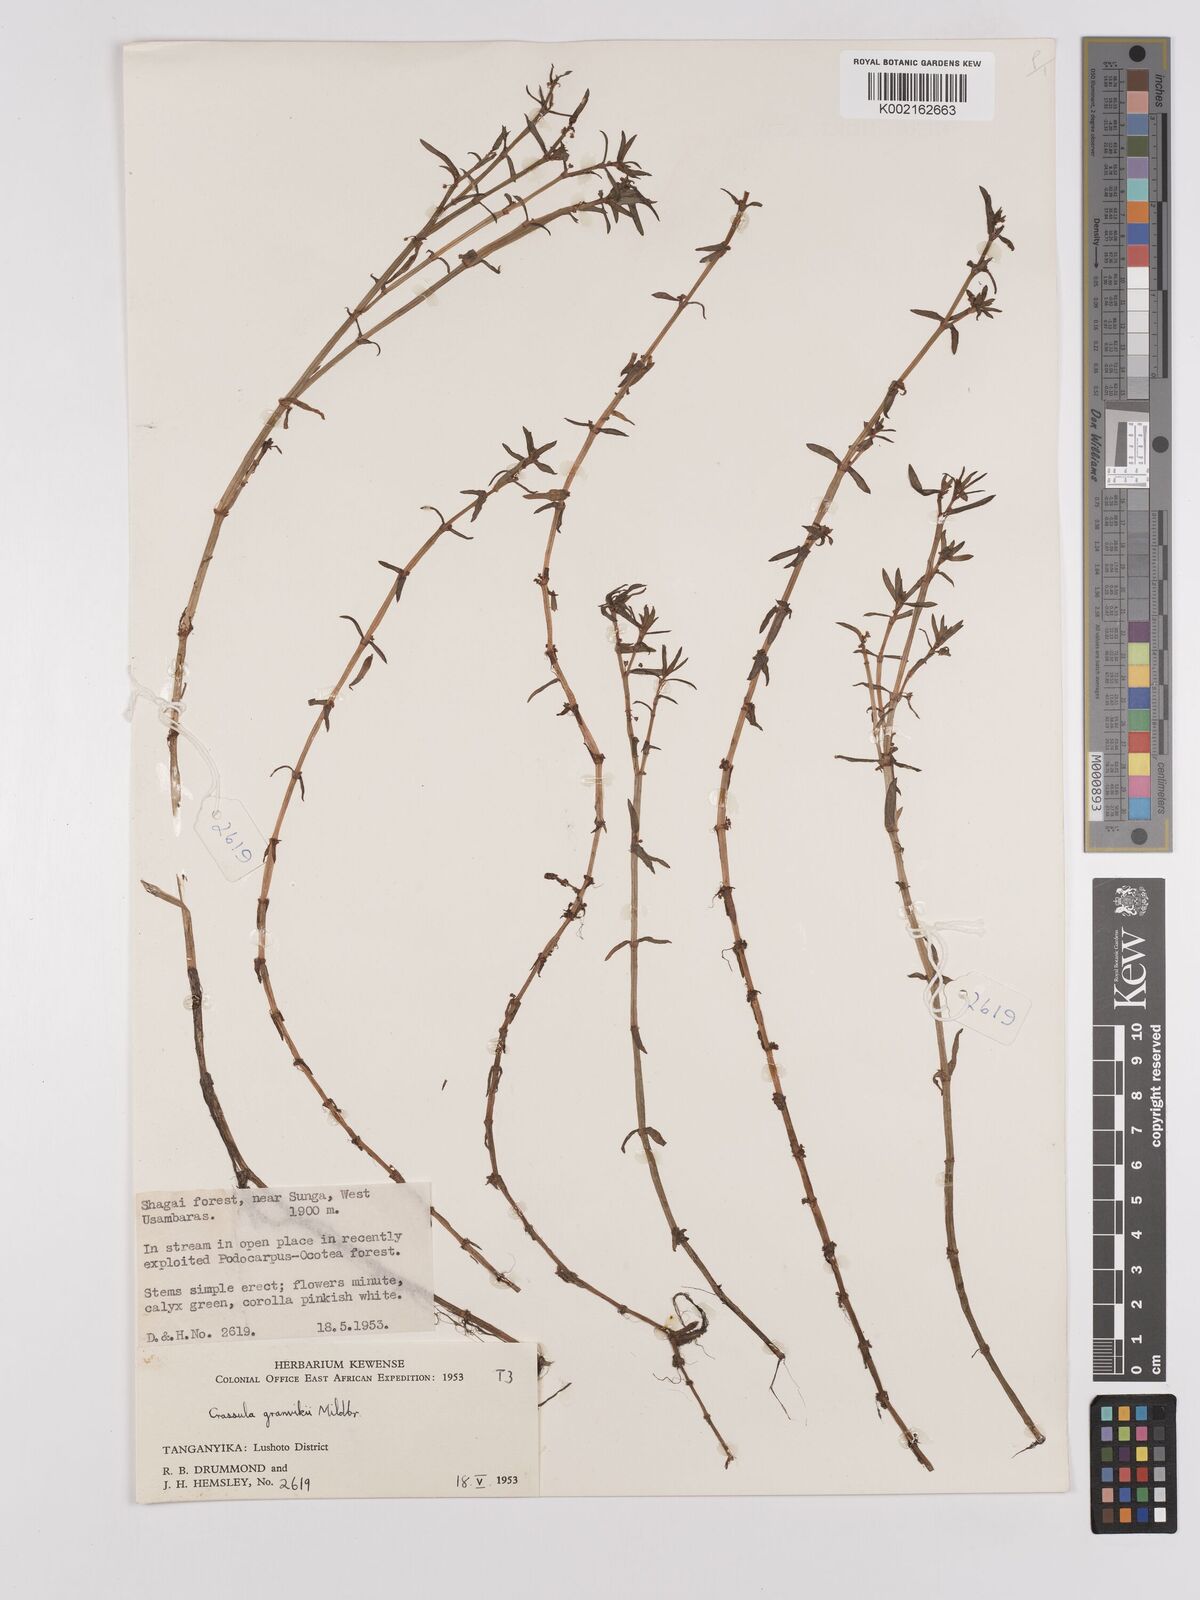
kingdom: Plantae
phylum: Tracheophyta
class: Magnoliopsida
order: Saxifragales
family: Crassulaceae
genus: Crassula
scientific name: Crassula granvikii
